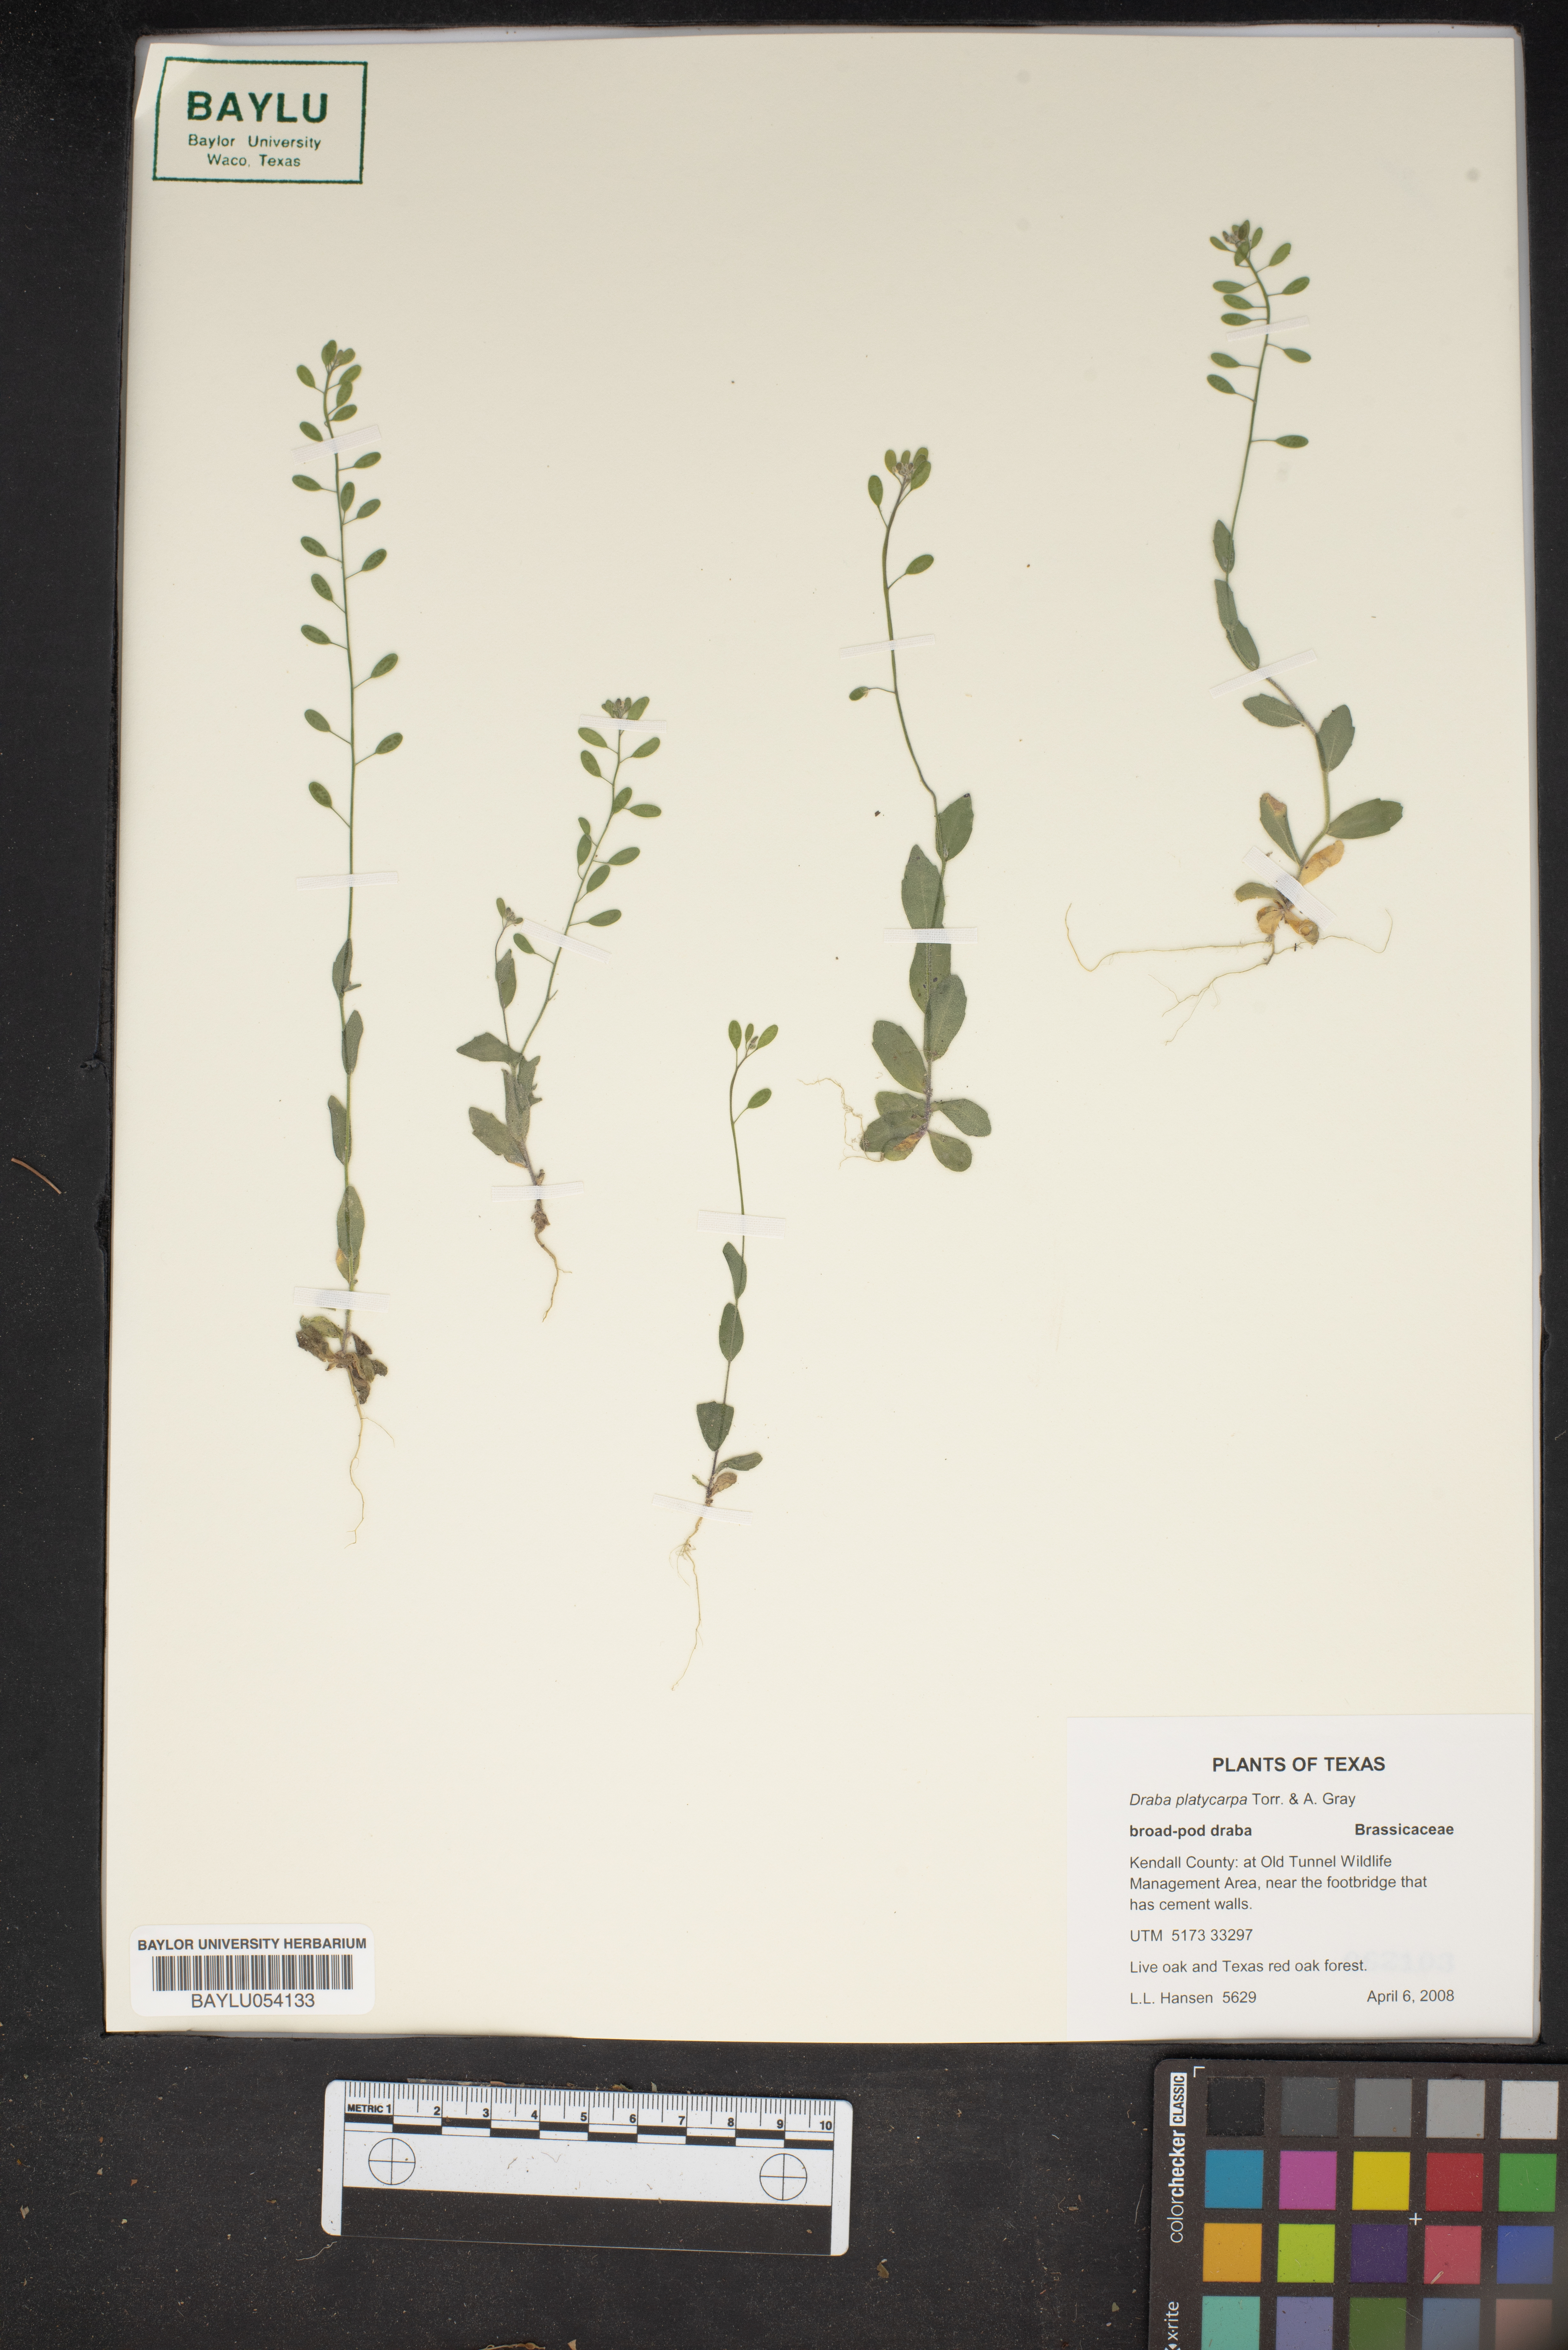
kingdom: Plantae
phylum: Tracheophyta
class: Magnoliopsida
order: Brassicales
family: Brassicaceae
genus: Tomostima
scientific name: Tomostima platycarpa
